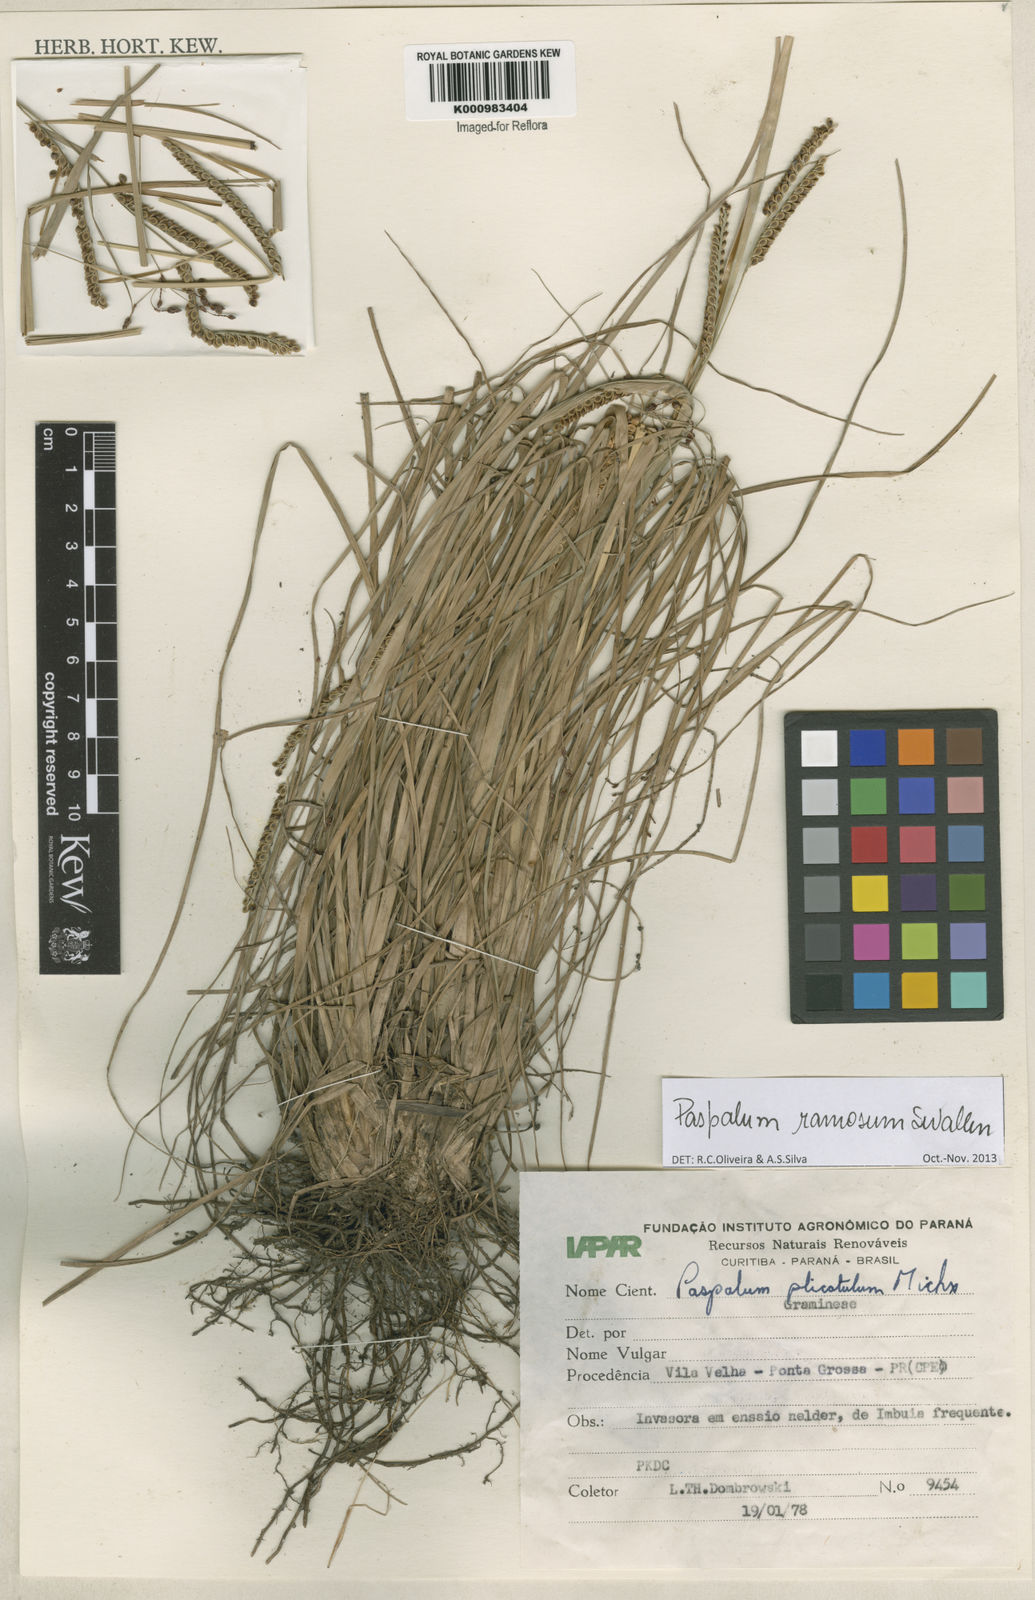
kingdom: Plantae
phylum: Tracheophyta
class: Liliopsida
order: Poales
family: Poaceae
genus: Paspalum
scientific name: Paspalum plicatulum
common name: Top paspalum
